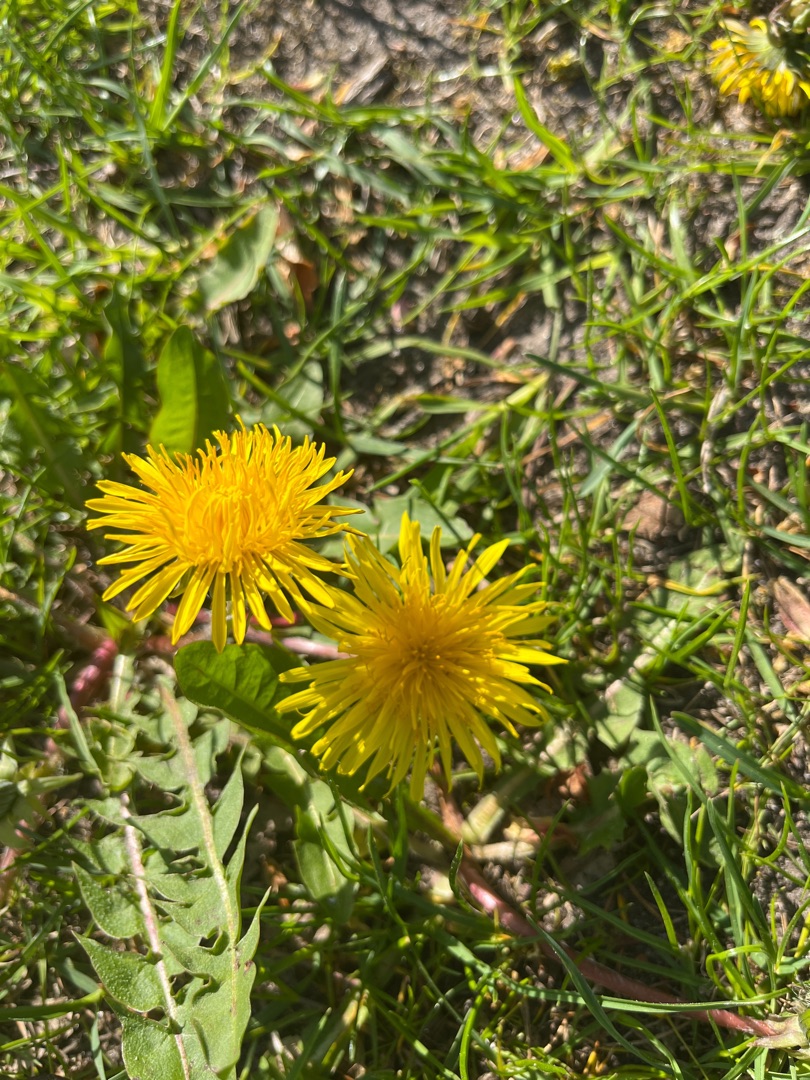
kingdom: Plantae
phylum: Tracheophyta
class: Magnoliopsida
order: Asterales
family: Asteraceae
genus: Taraxacum
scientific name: Taraxacum
